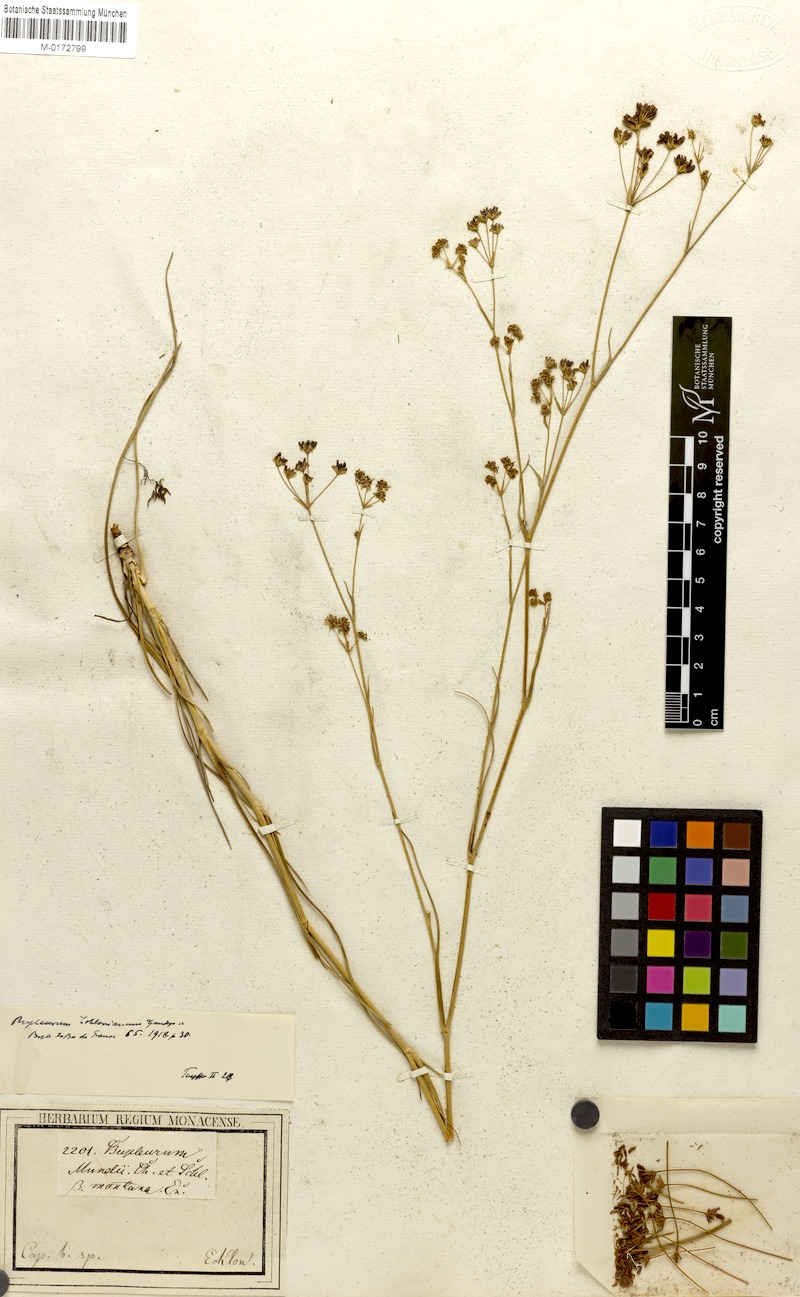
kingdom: Plantae
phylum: Tracheophyta
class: Magnoliopsida
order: Apiales
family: Apiaceae
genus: Bupleurum
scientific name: Bupleurum mundtii
